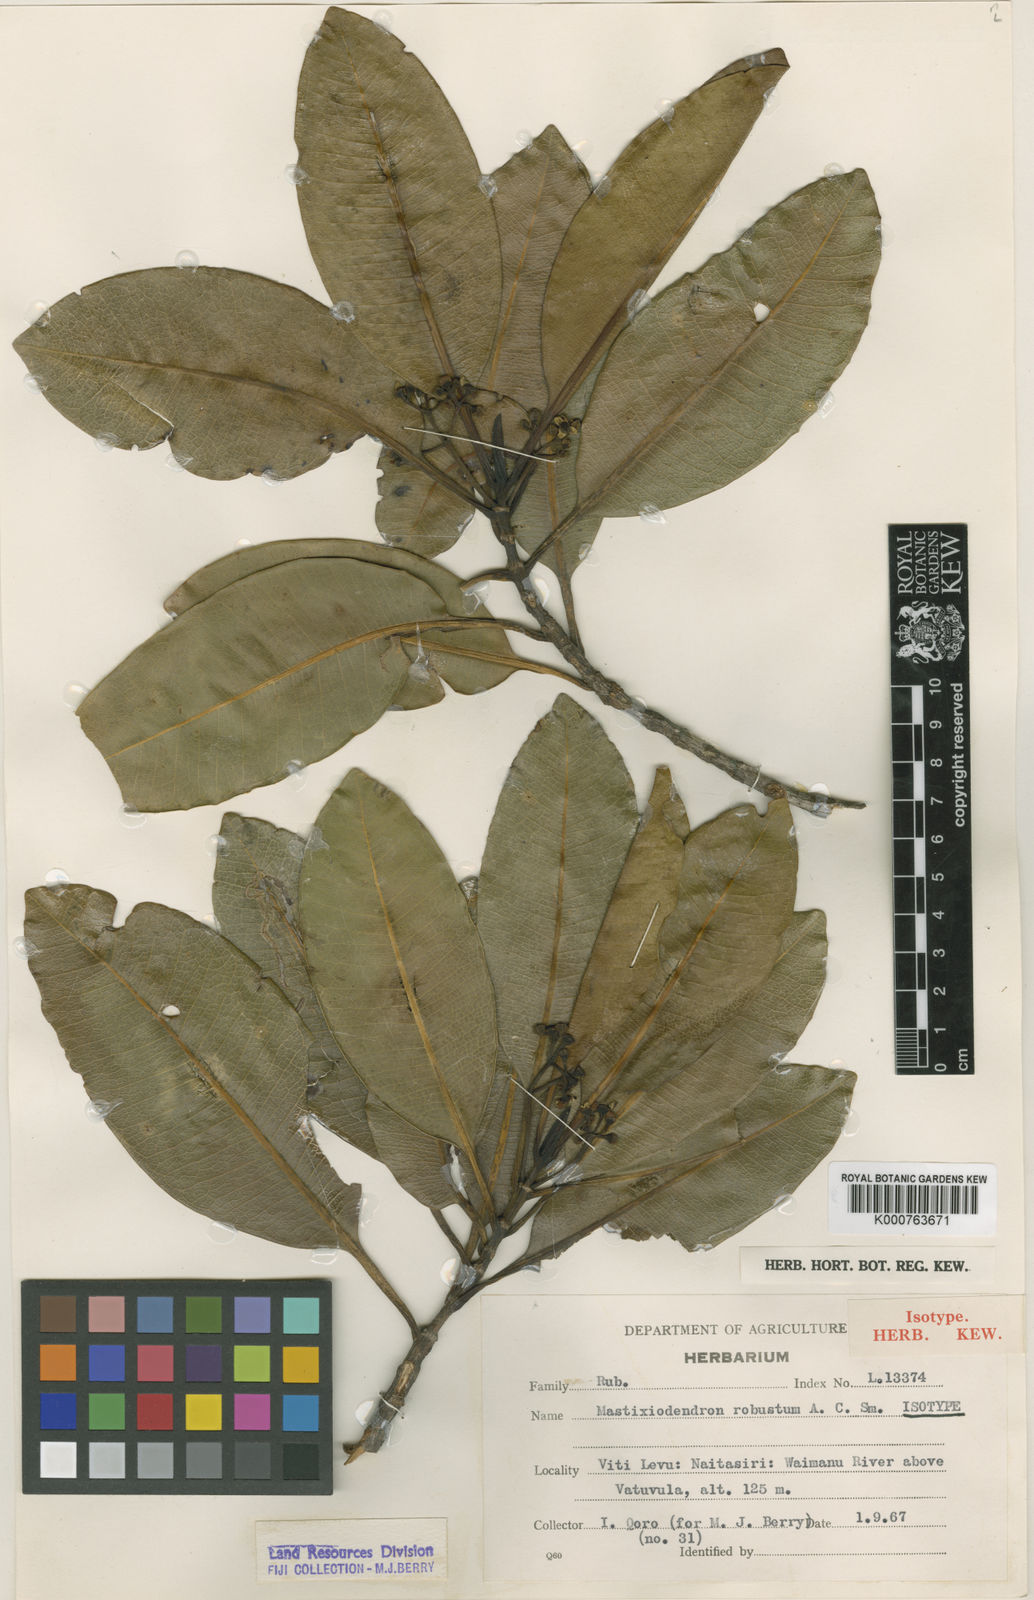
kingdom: Plantae
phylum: Tracheophyta
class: Magnoliopsida
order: Gentianales
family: Rubiaceae
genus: Mastixiodendron
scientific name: Mastixiodendron robustum
